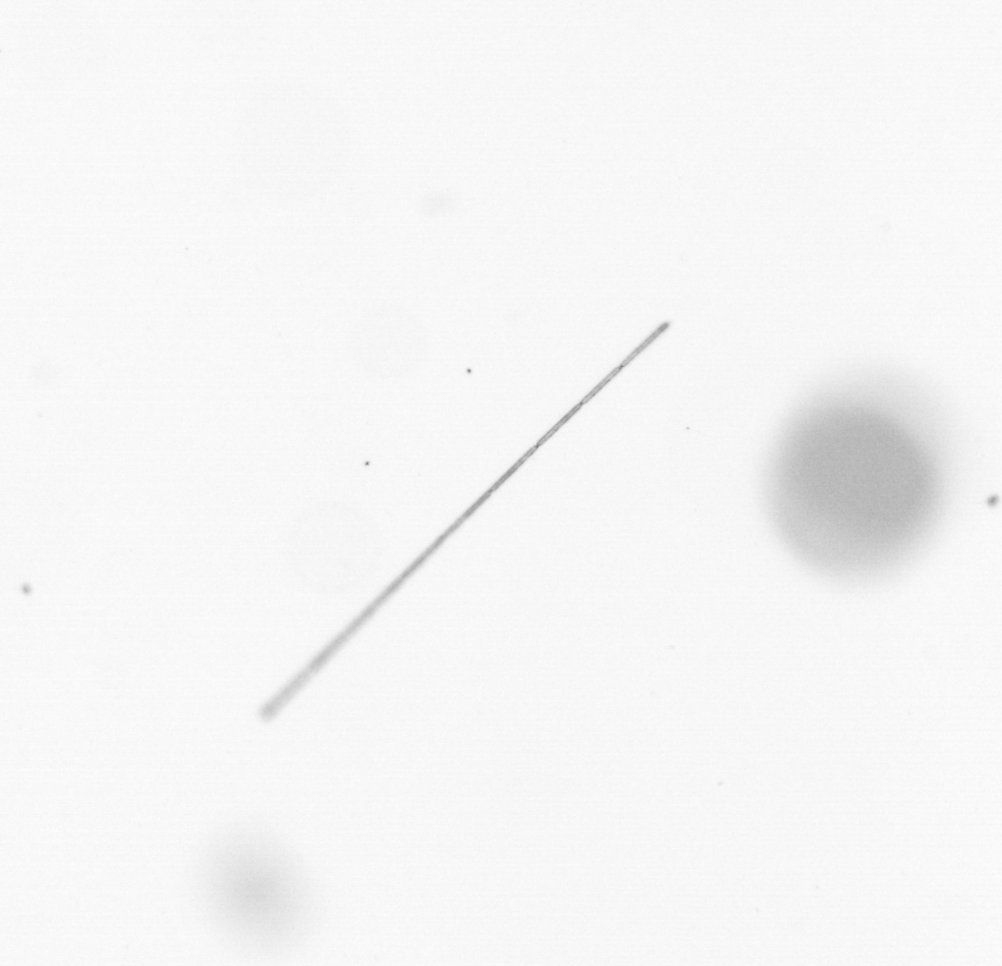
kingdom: Chromista
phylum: Ochrophyta
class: Bacillariophyceae
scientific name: Bacillariophyceae
